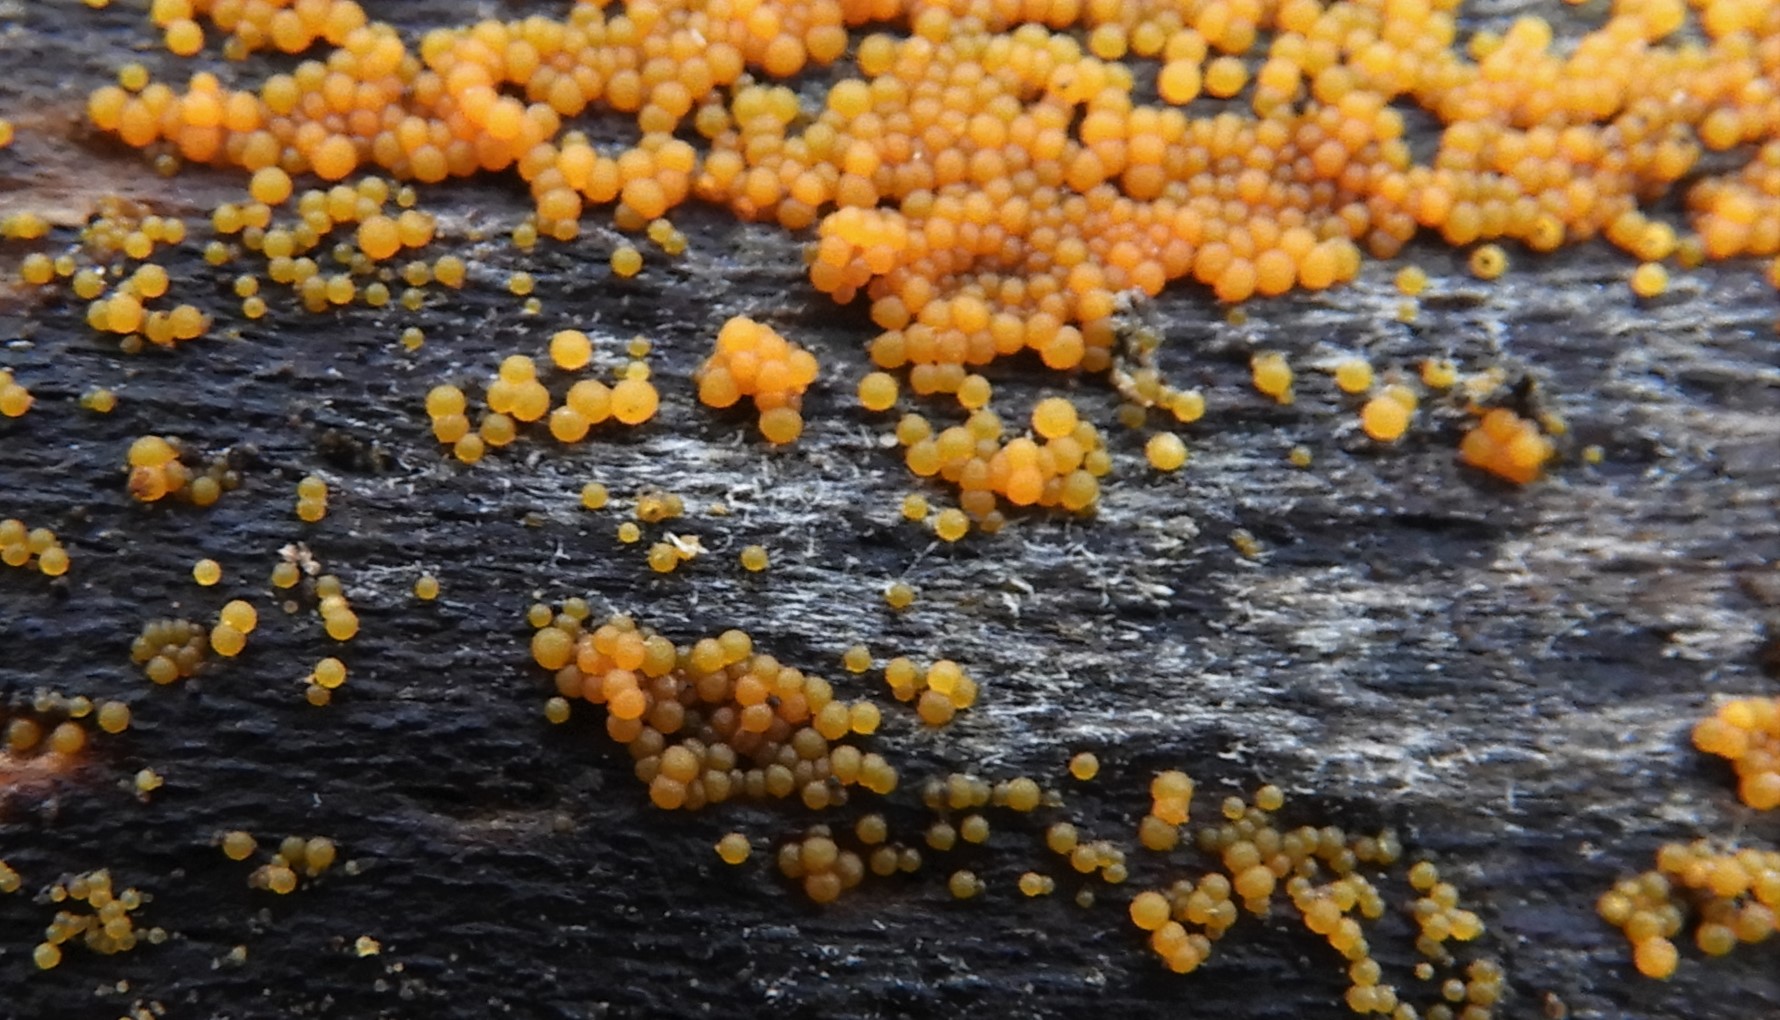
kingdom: Fungi
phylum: Ascomycota
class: Sordariomycetes
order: Hypocreales
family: Nectriaceae
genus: Hydropisphaera
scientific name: Hydropisphaera peziza
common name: skålformet gyldenkerne
